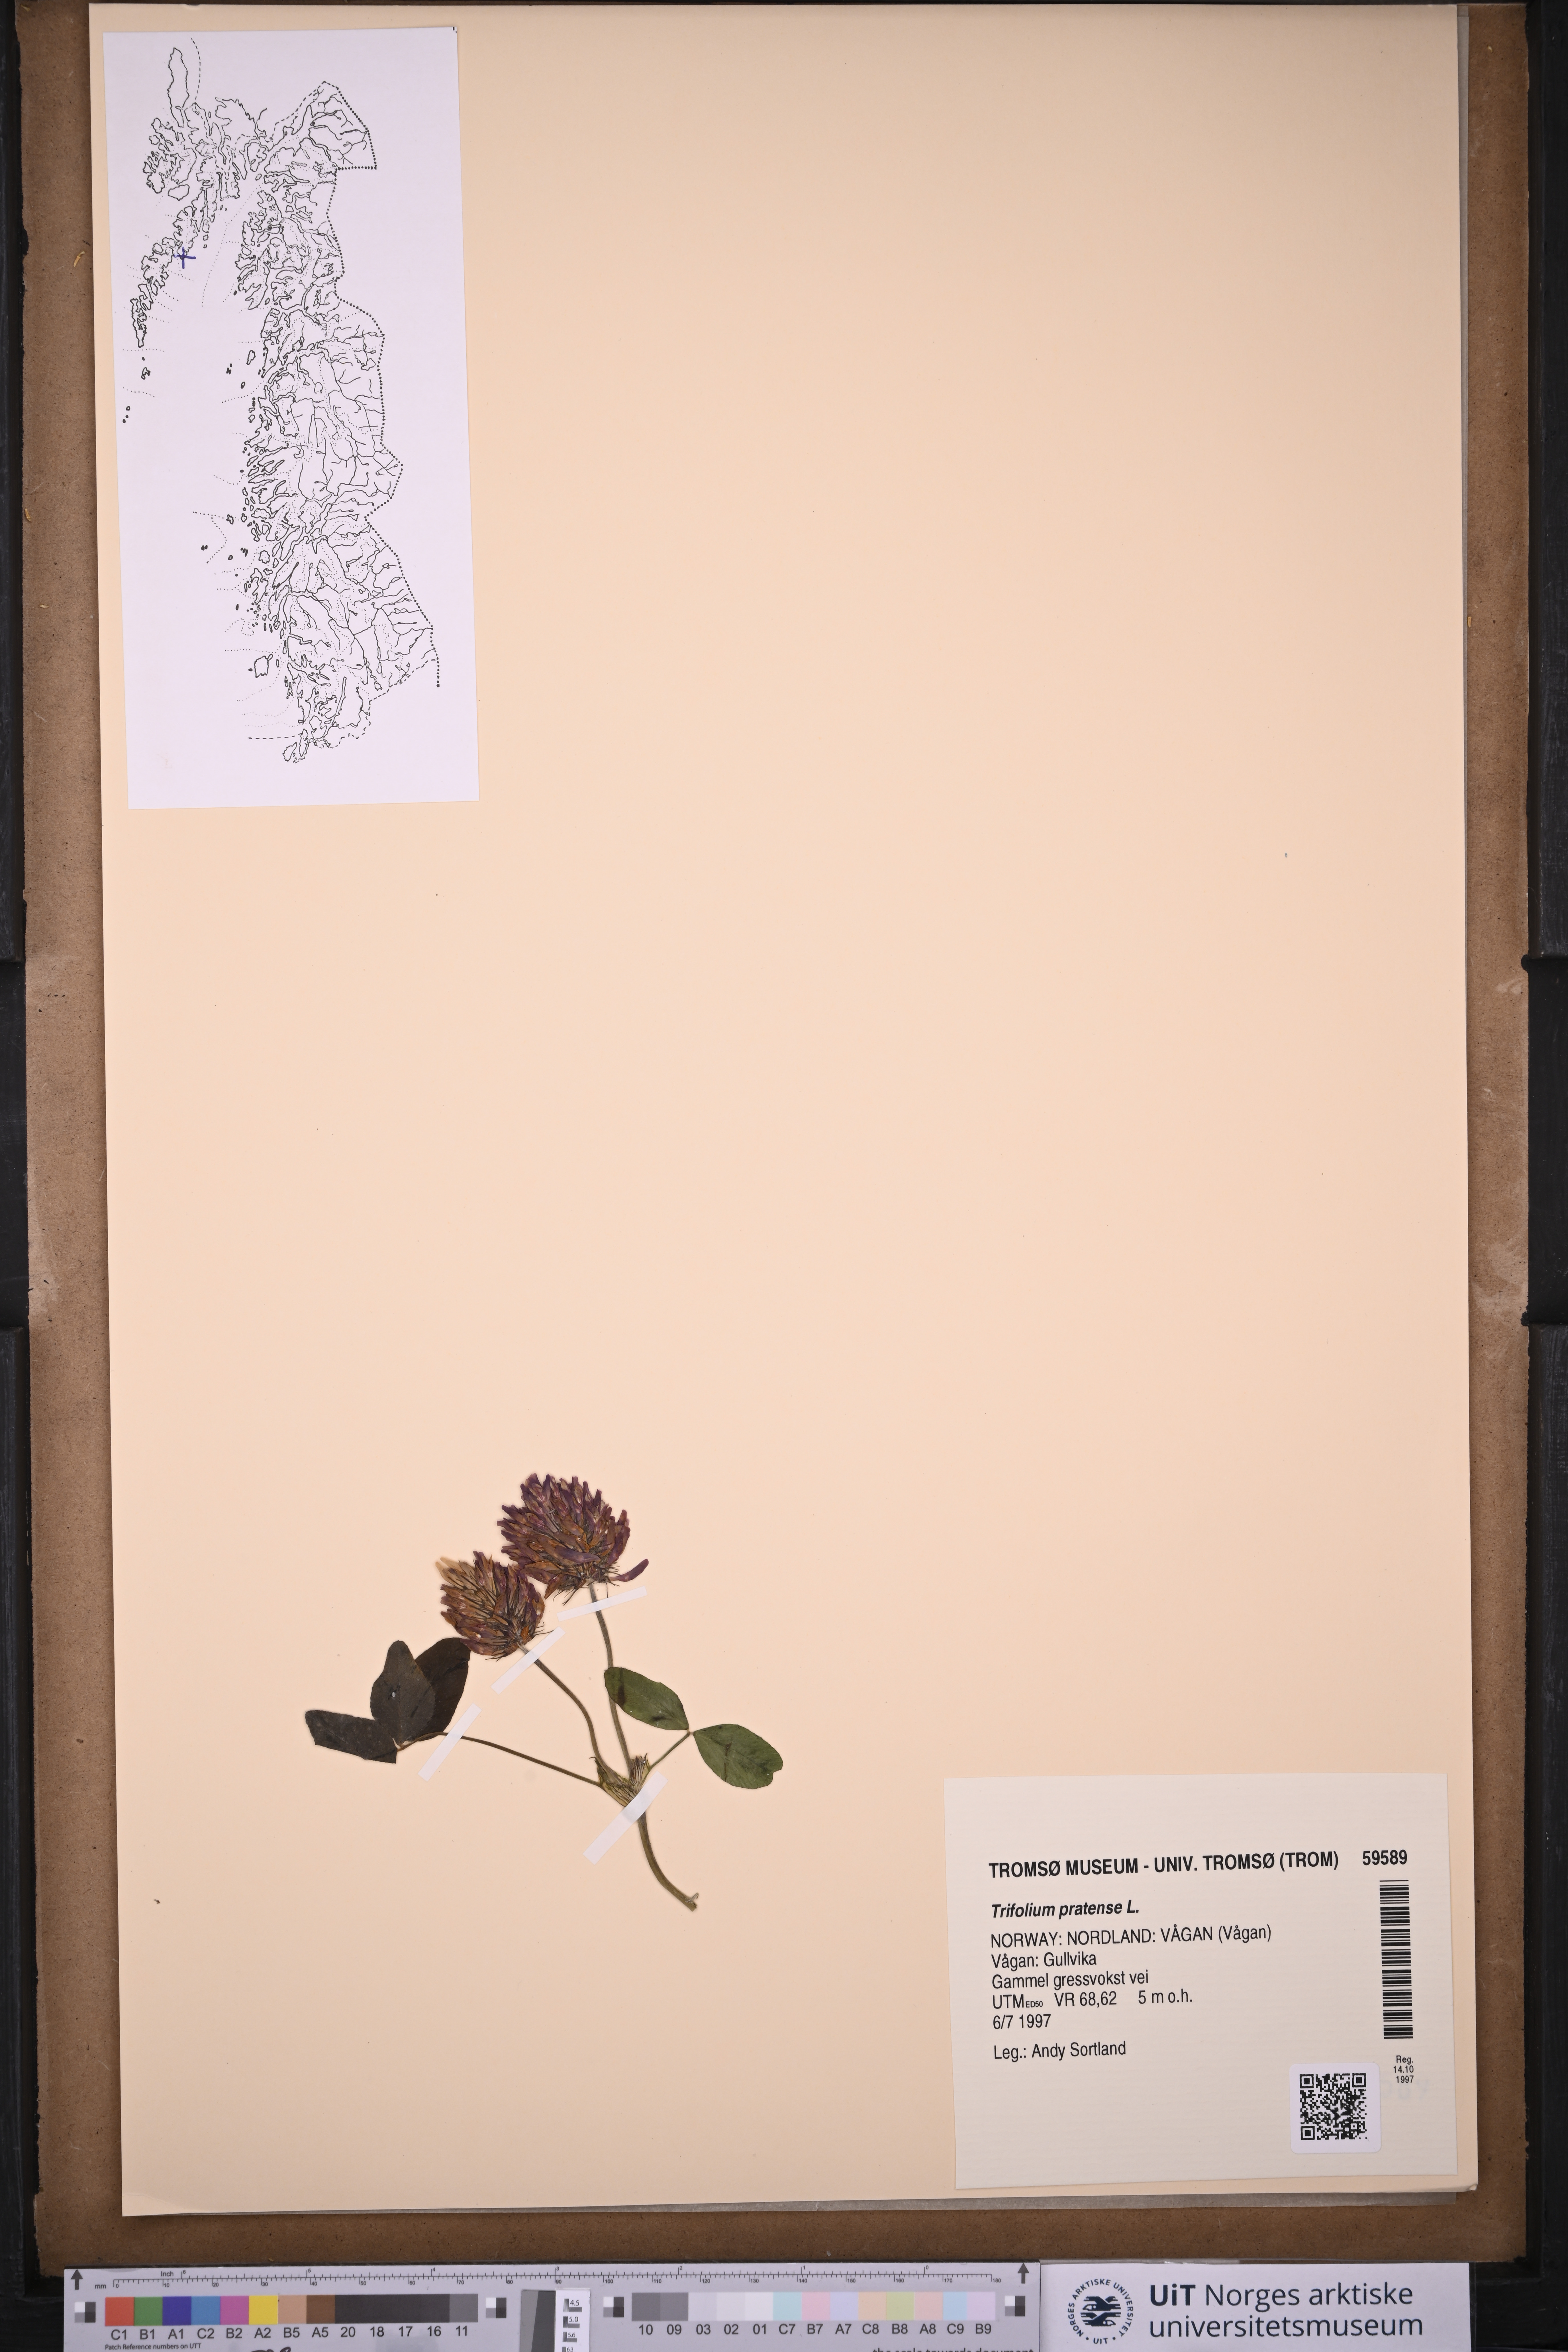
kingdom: Plantae
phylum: Tracheophyta
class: Magnoliopsida
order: Fabales
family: Fabaceae
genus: Trifolium
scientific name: Trifolium pratense
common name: Red clover
